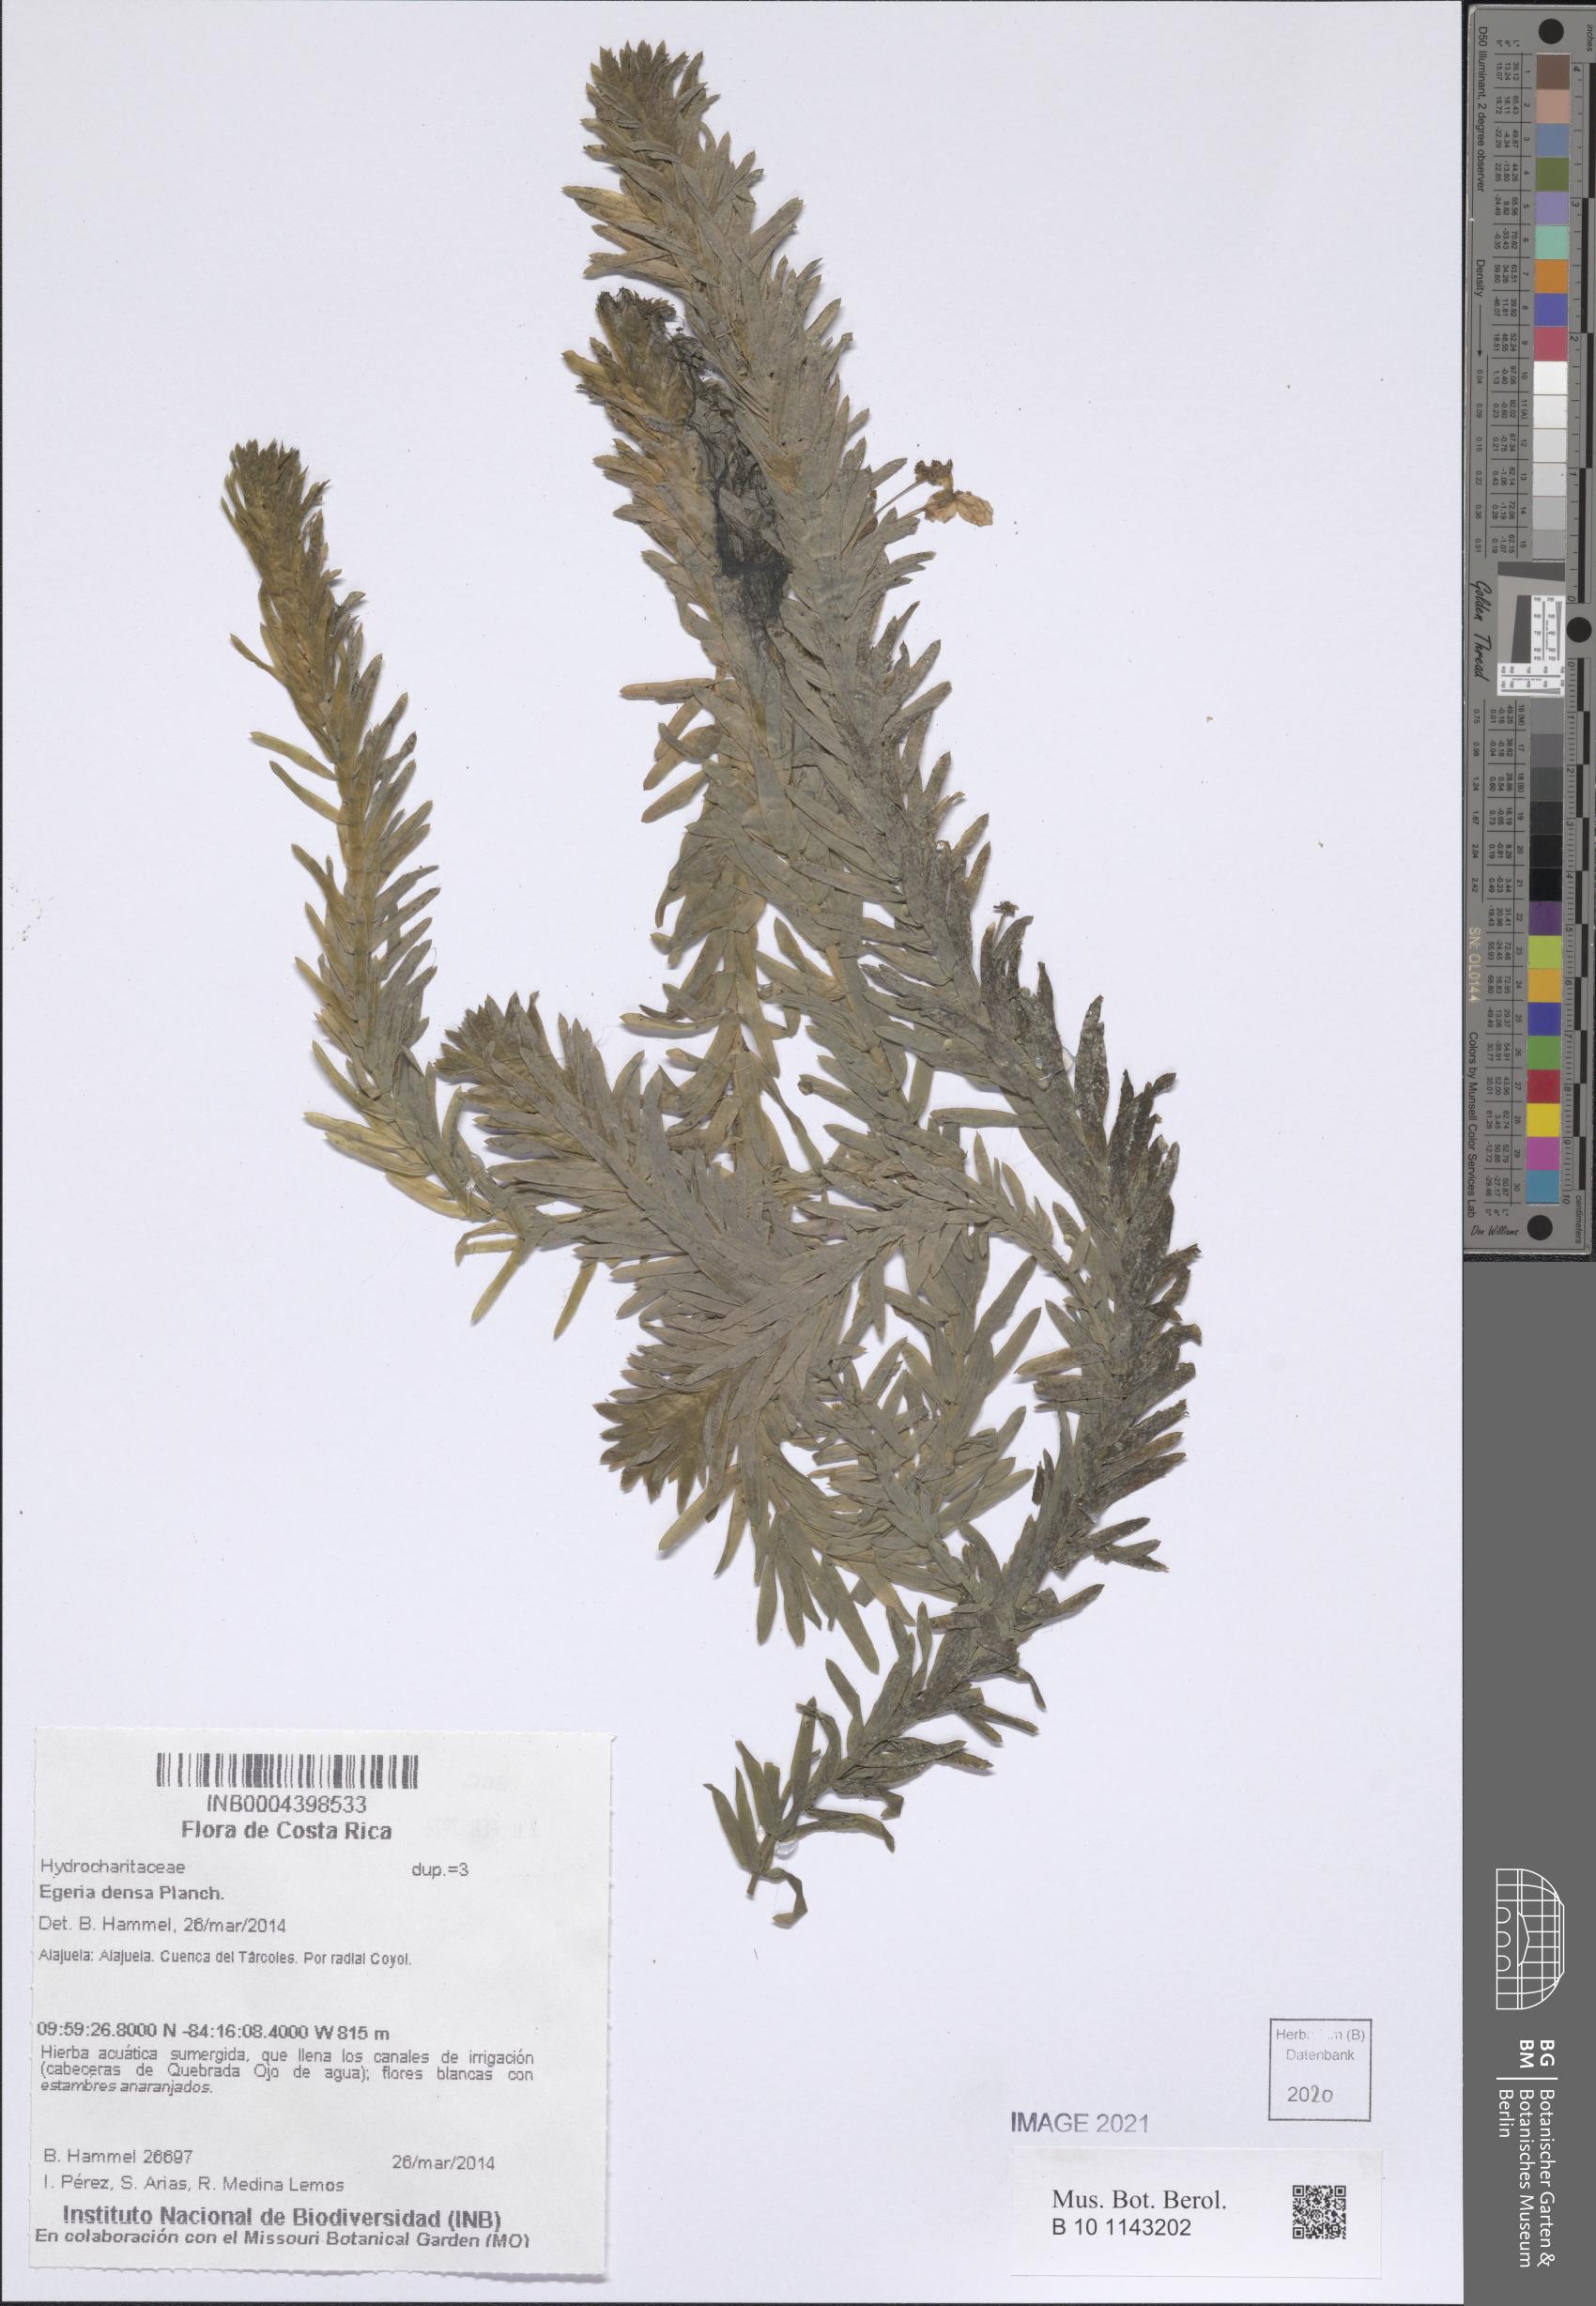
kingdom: Plantae
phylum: Tracheophyta
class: Liliopsida
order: Alismatales
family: Hydrocharitaceae
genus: Elodea
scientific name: Elodea densa
